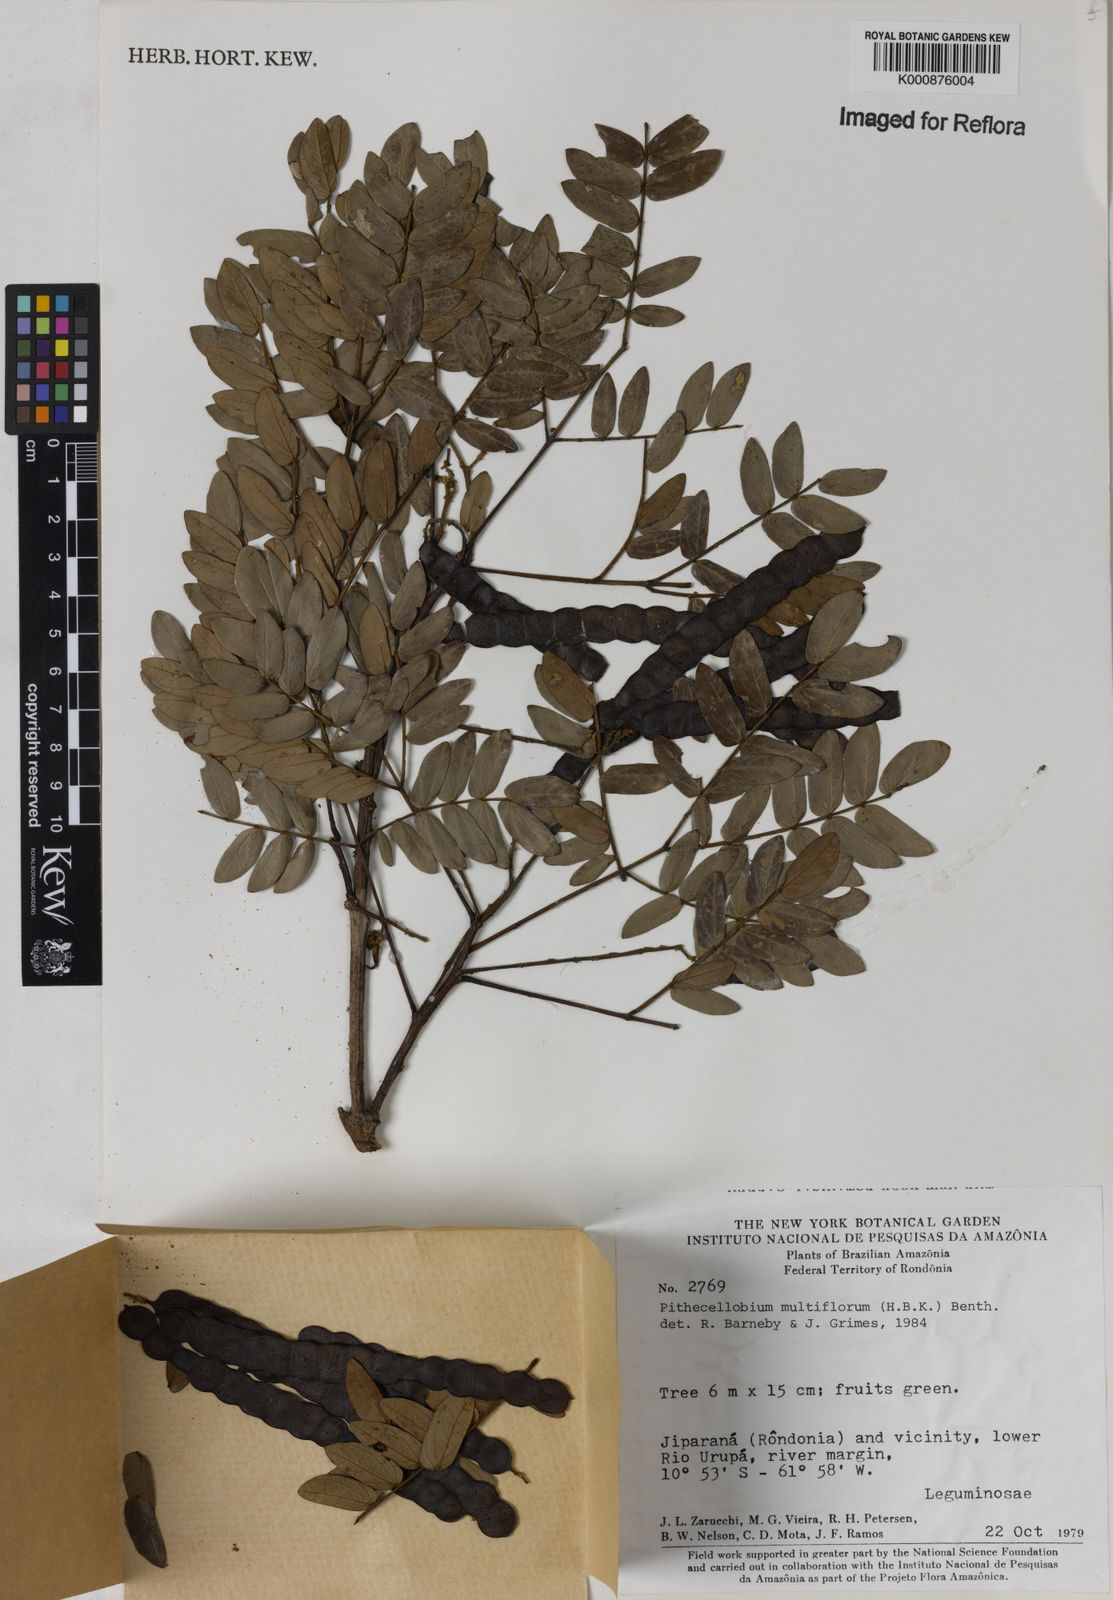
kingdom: Plantae
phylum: Tracheophyta
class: Magnoliopsida
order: Fabales
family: Fabaceae
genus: Albizia
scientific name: Albizia multiflora
